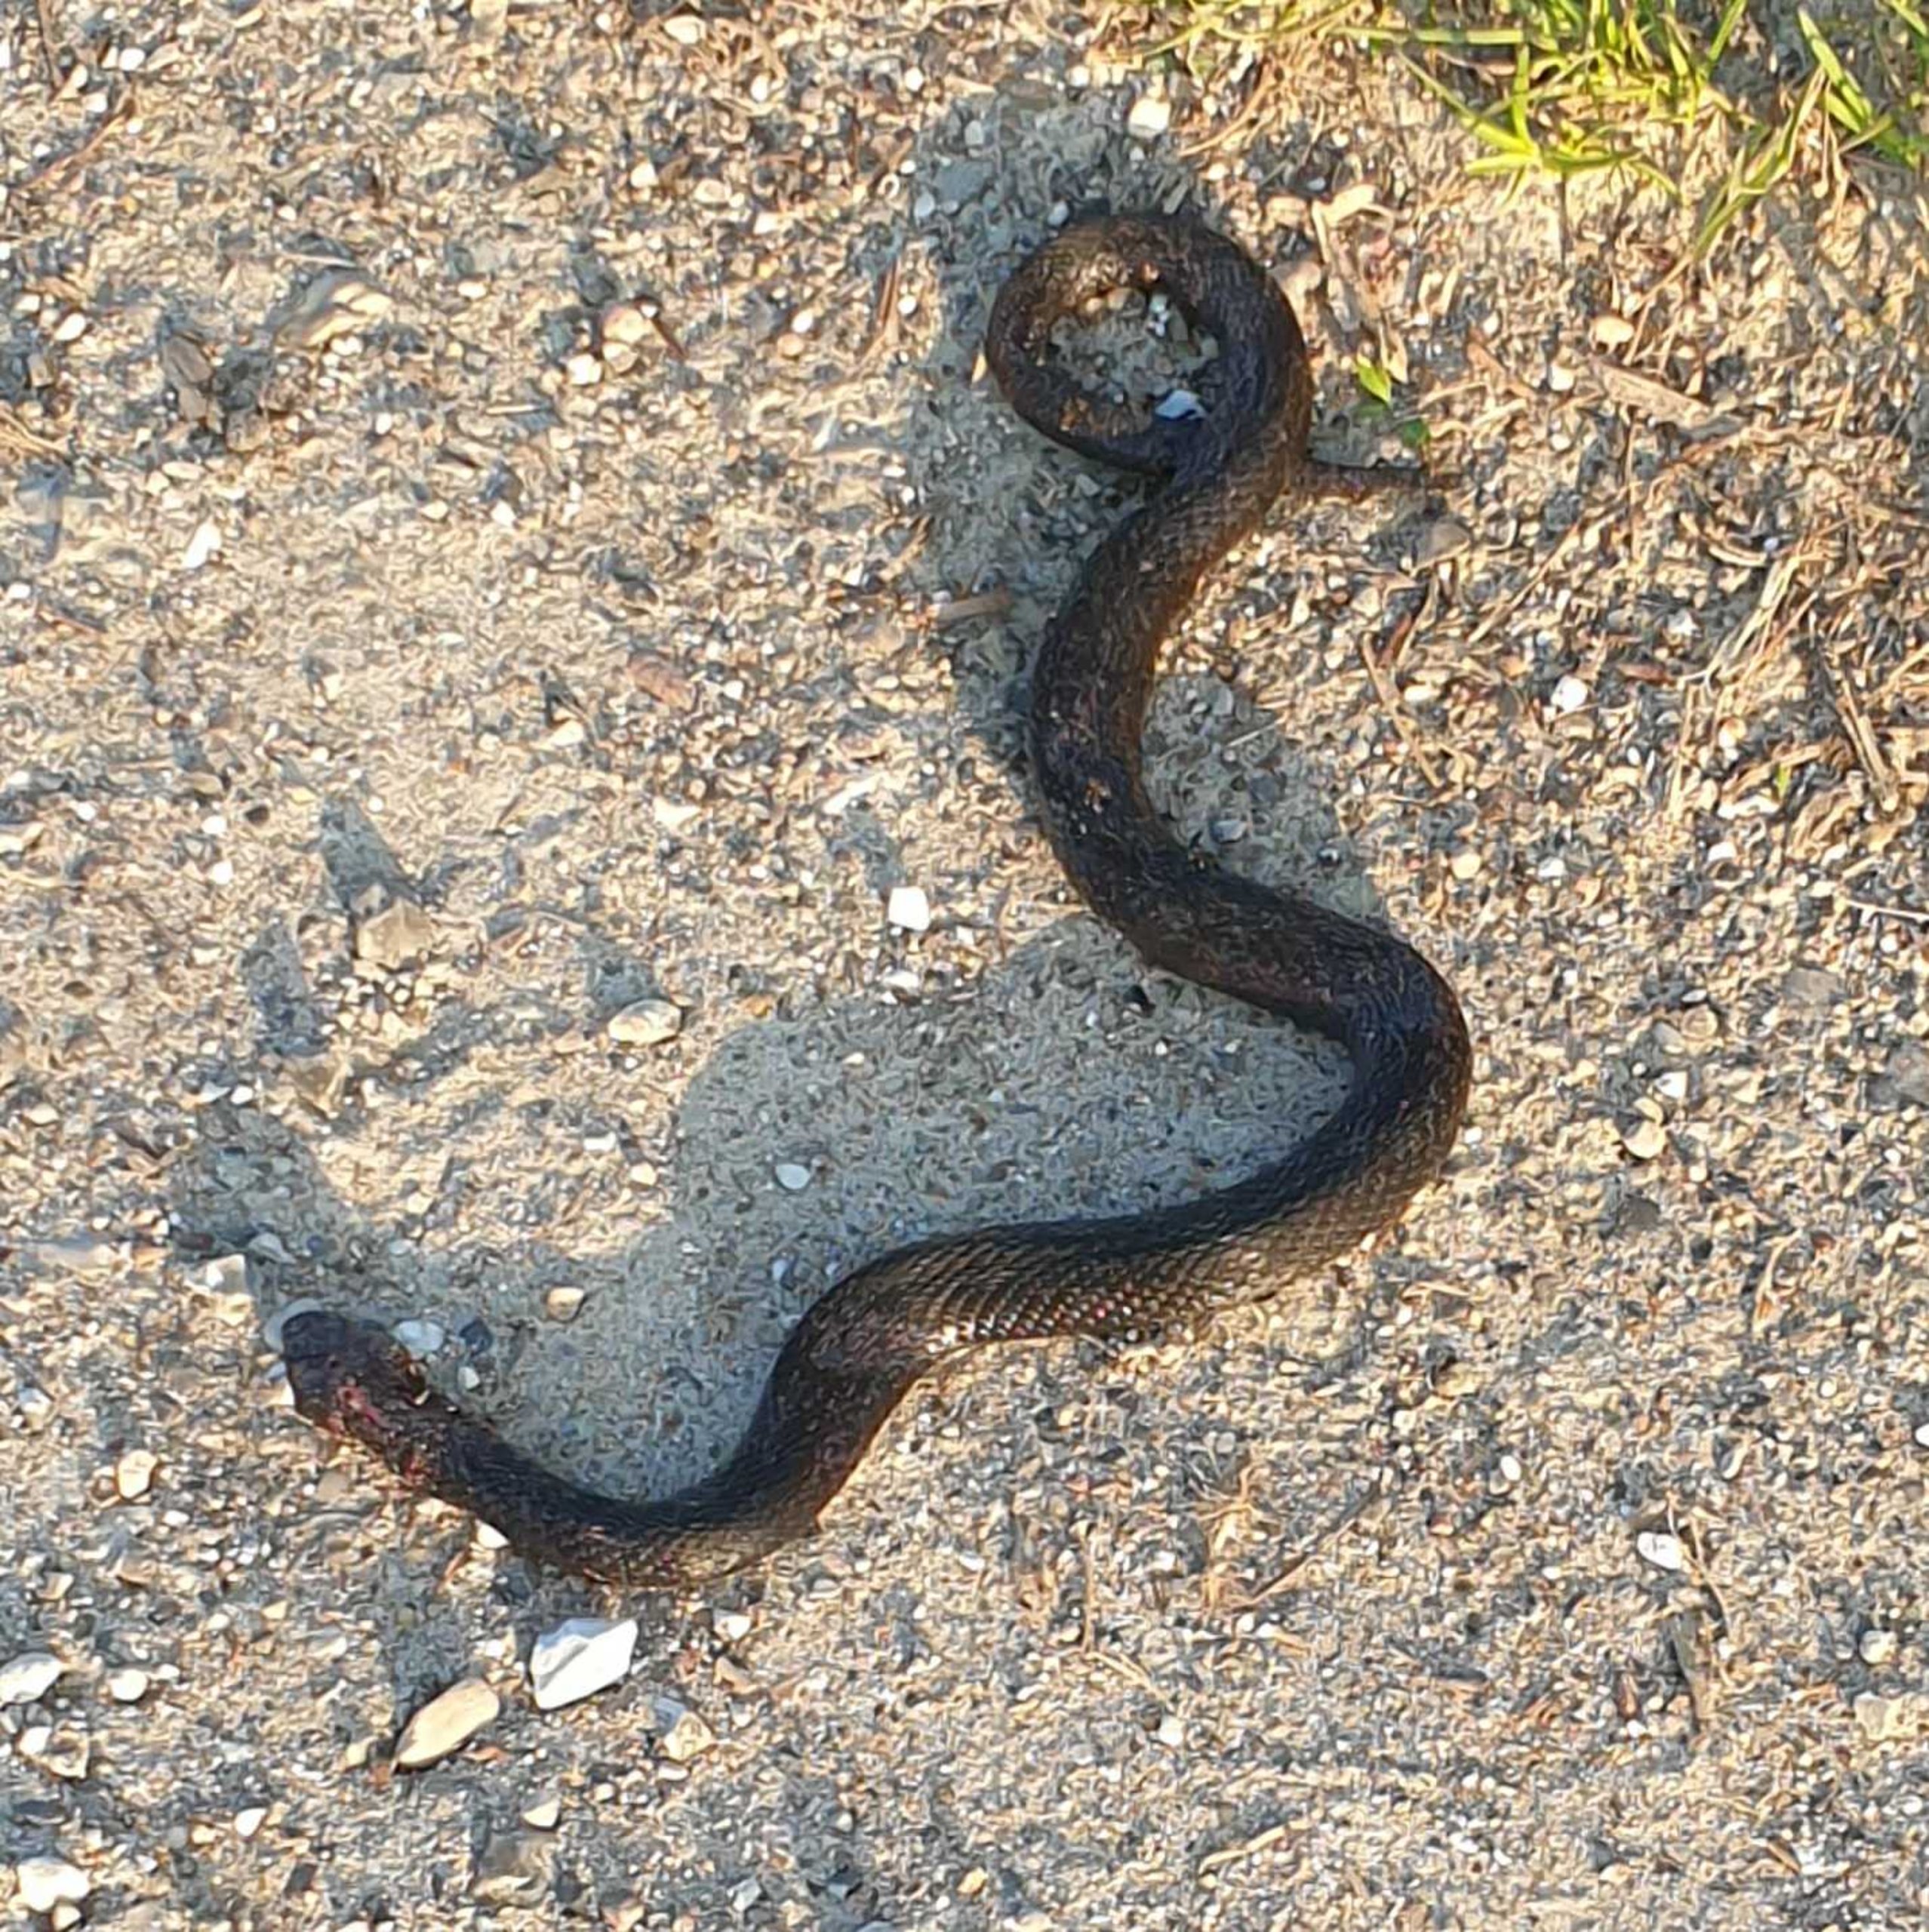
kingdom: Animalia
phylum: Chordata
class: Squamata
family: Viperidae
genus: Vipera
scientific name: Vipera berus
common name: Hugorm
